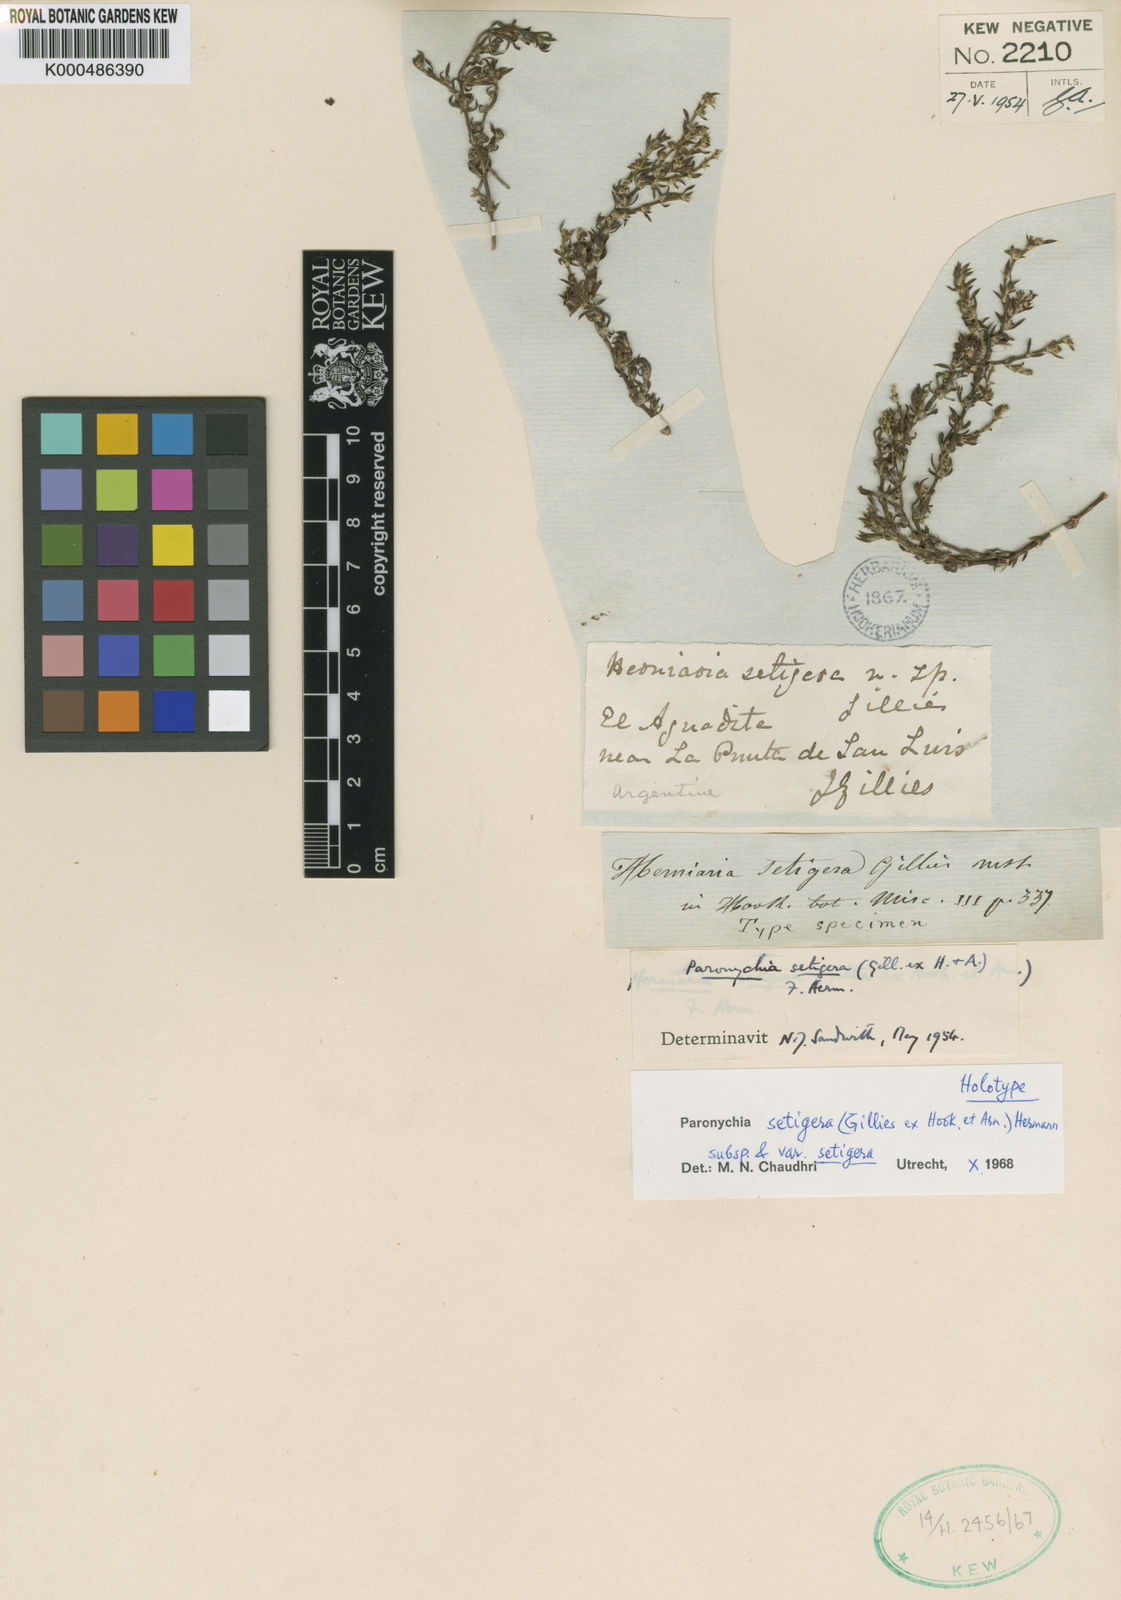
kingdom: Plantae
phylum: Tracheophyta
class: Magnoliopsida
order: Caryophyllales
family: Caryophyllaceae
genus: Paronychia
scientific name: Paronychia setigera
